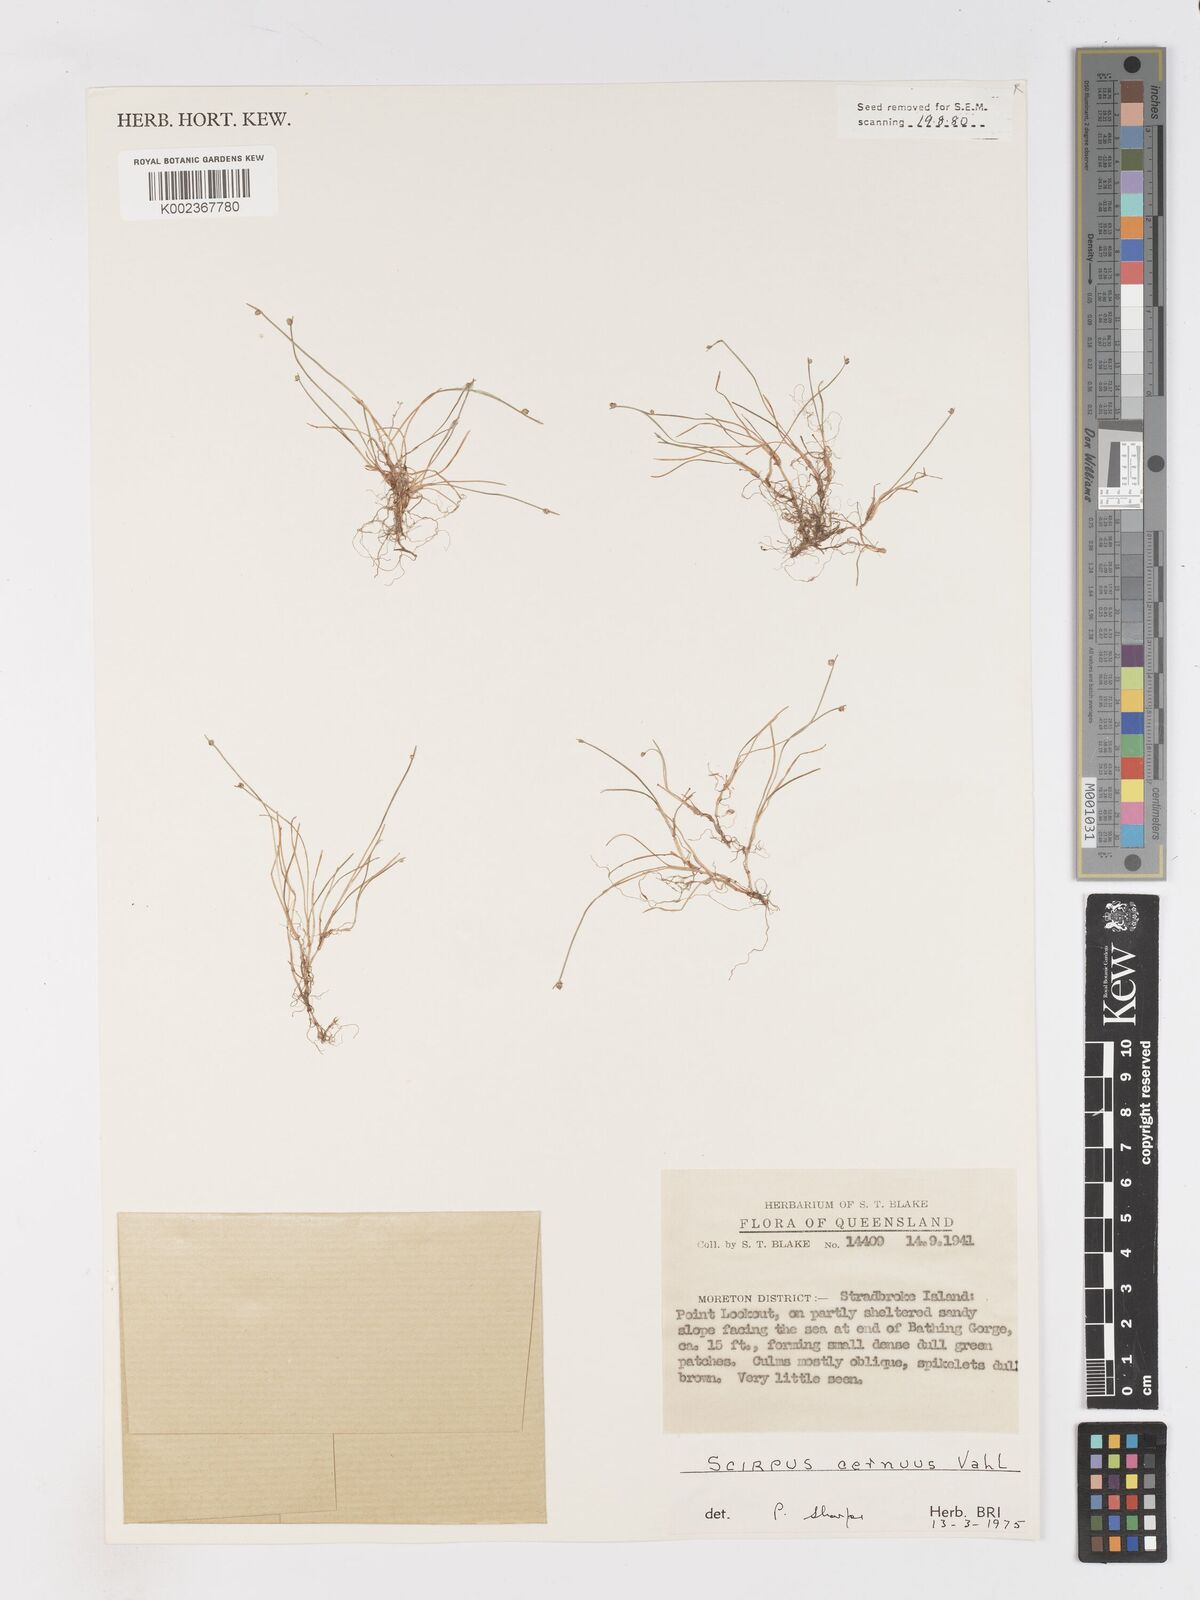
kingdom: Plantae
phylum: Tracheophyta
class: Liliopsida
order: Poales
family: Cyperaceae
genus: Isolepis
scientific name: Isolepis cernua
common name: Slender club-rush
